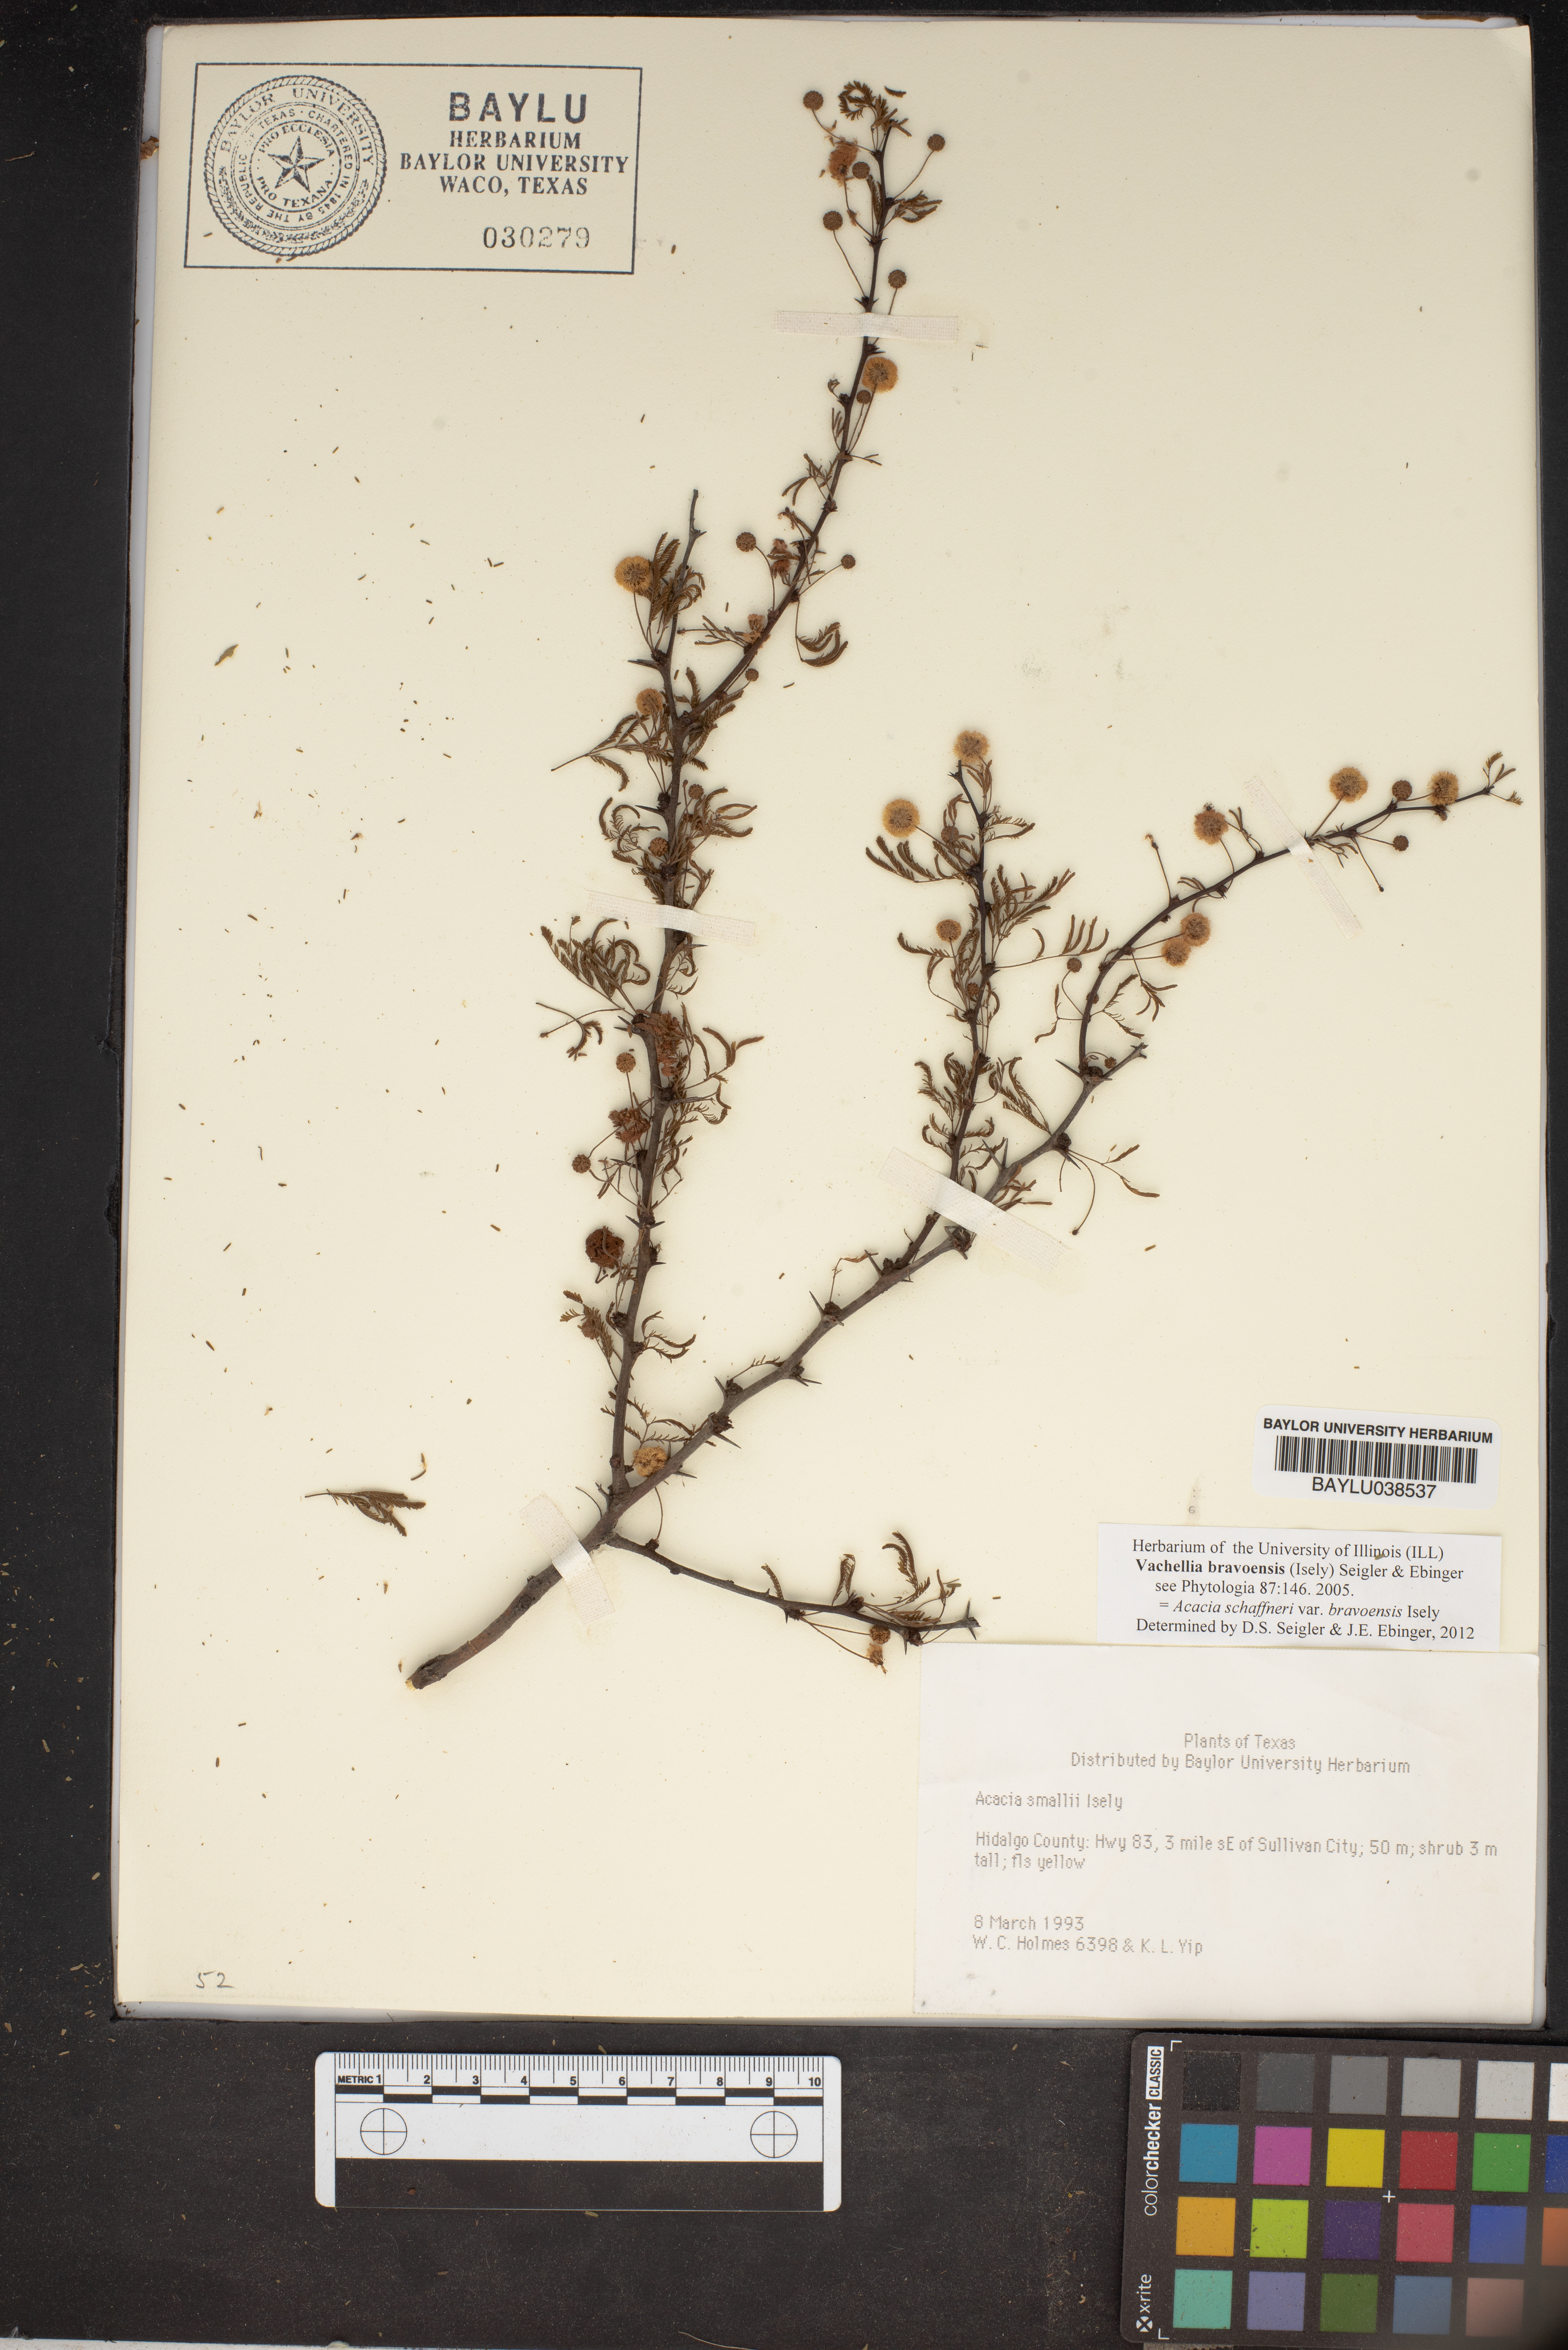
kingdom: Plantae
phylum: Tracheophyta
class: Magnoliopsida
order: Fabales
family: Fabaceae
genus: Vachellia
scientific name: Vachellia bravoensis
